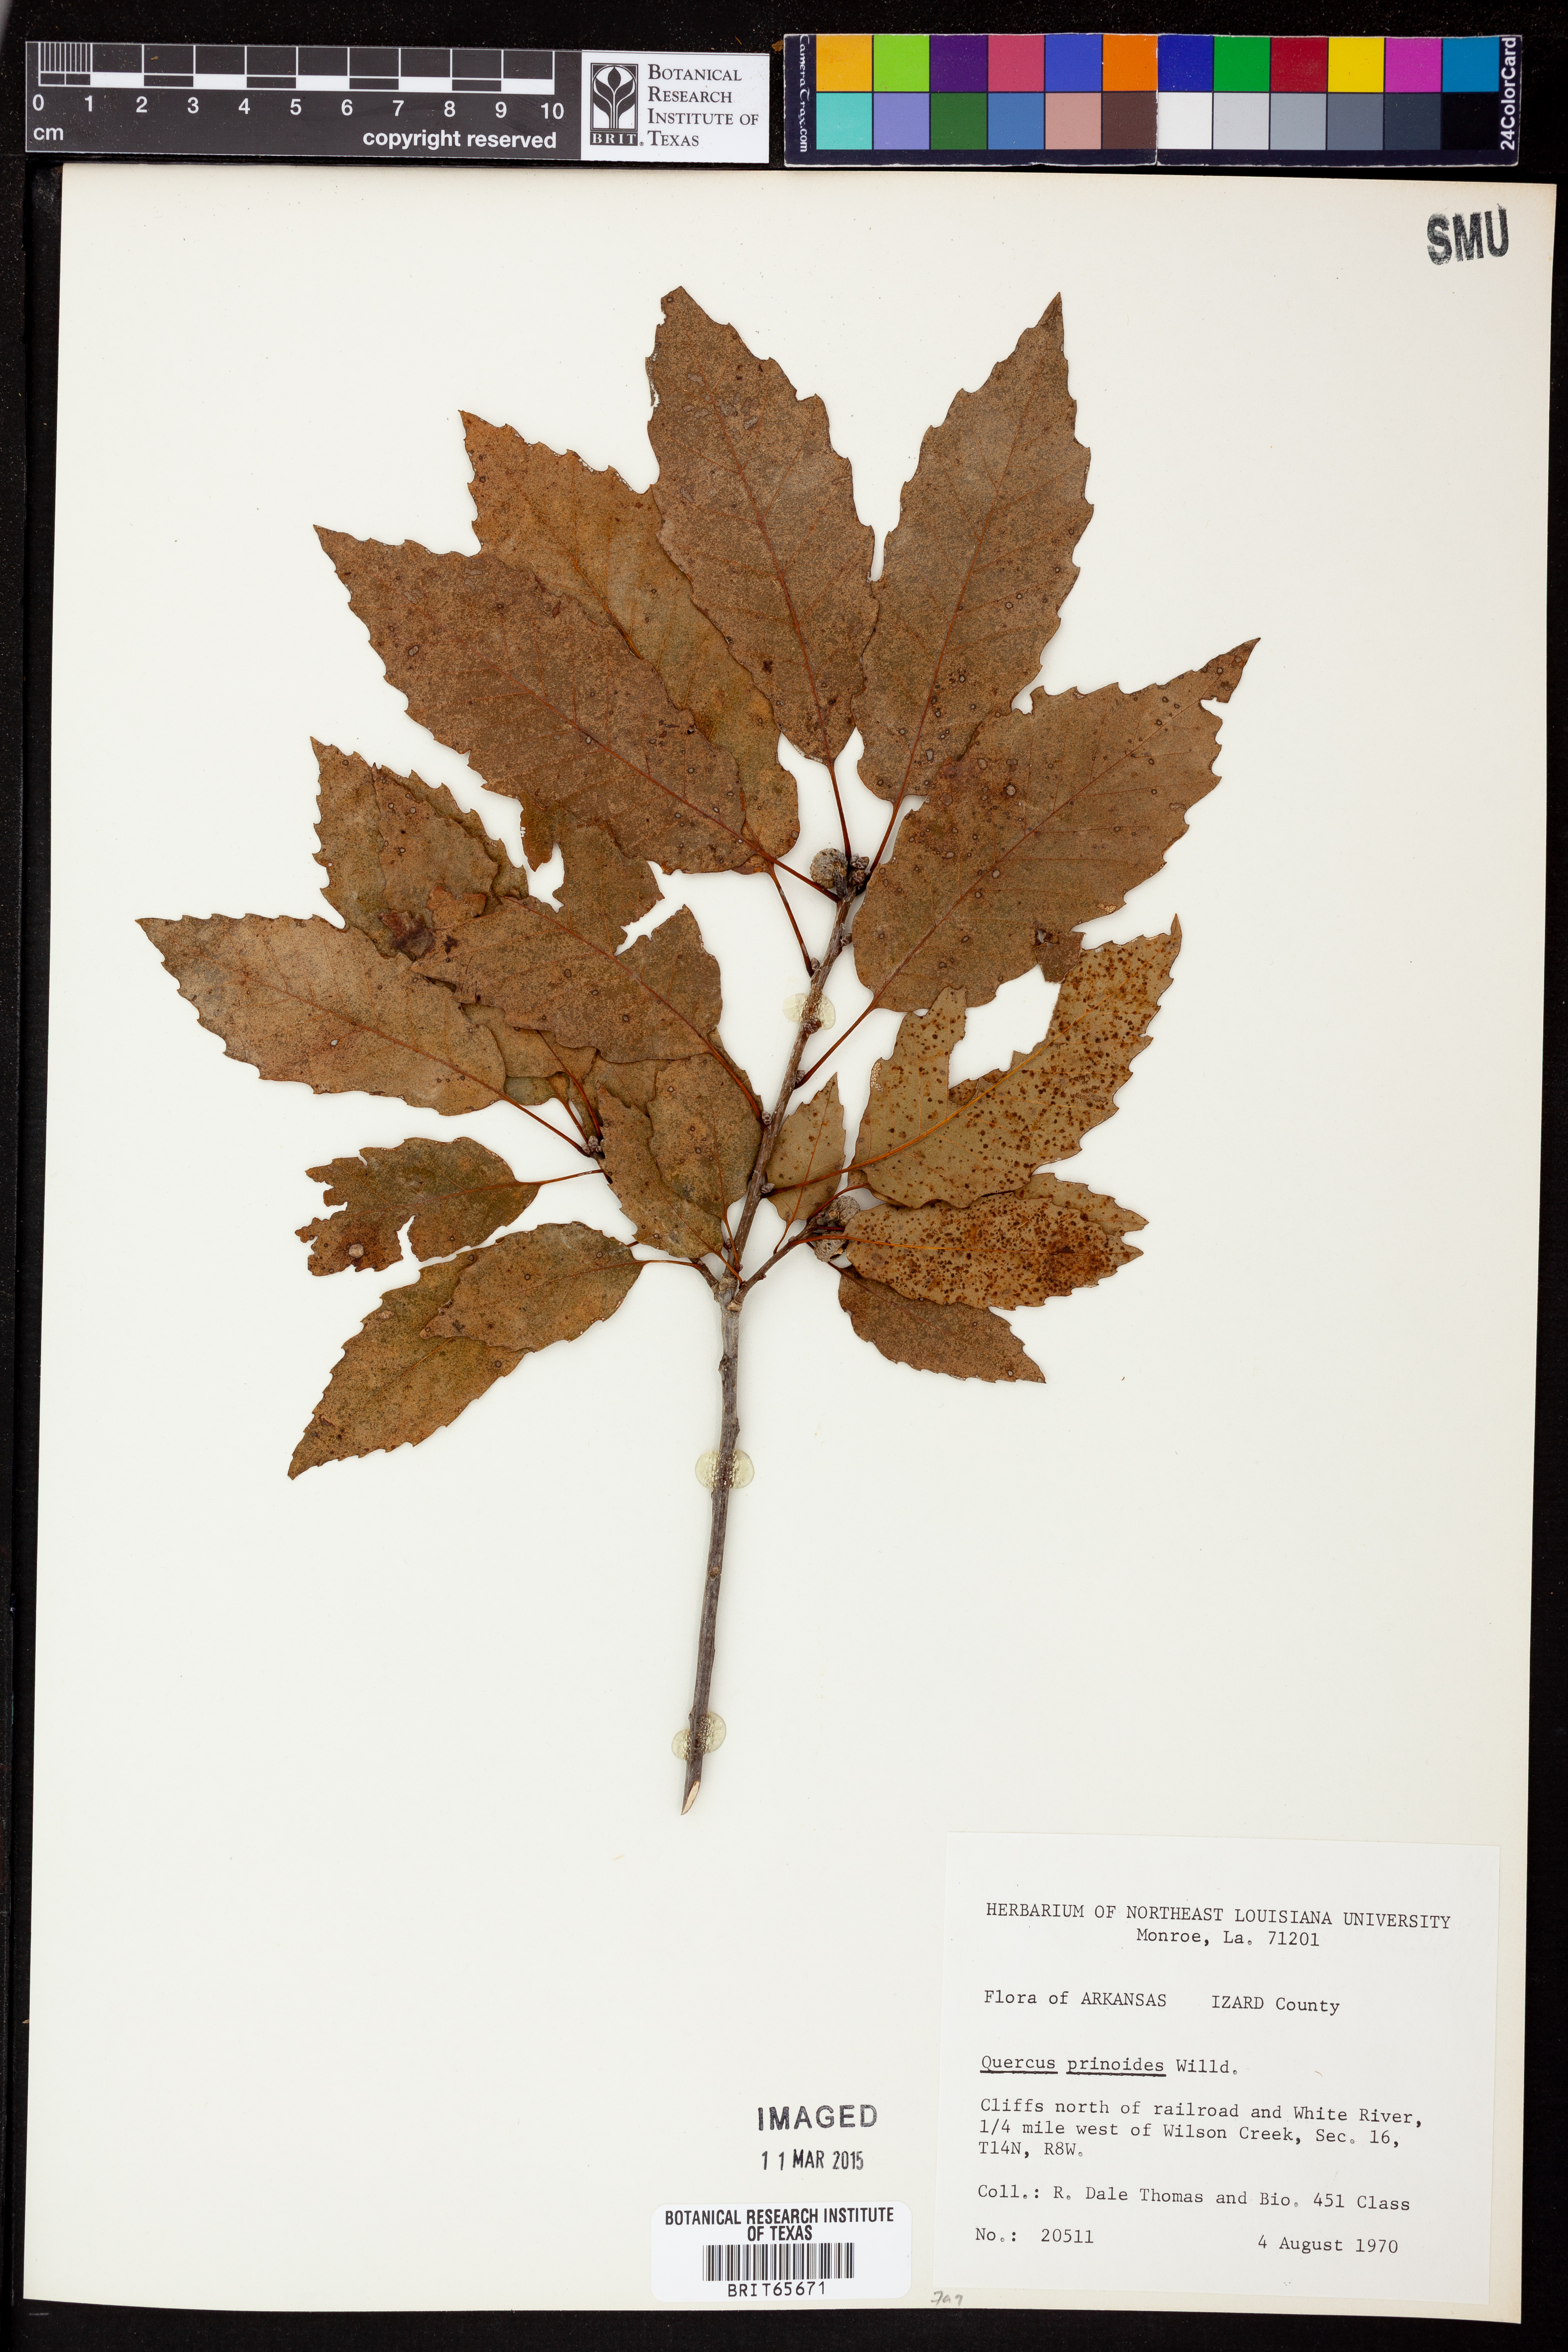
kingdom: Plantae
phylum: Tracheophyta
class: Magnoliopsida
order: Fagales
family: Fagaceae
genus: Quercus
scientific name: Quercus prinoides
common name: Dwarf chinkapin oak
